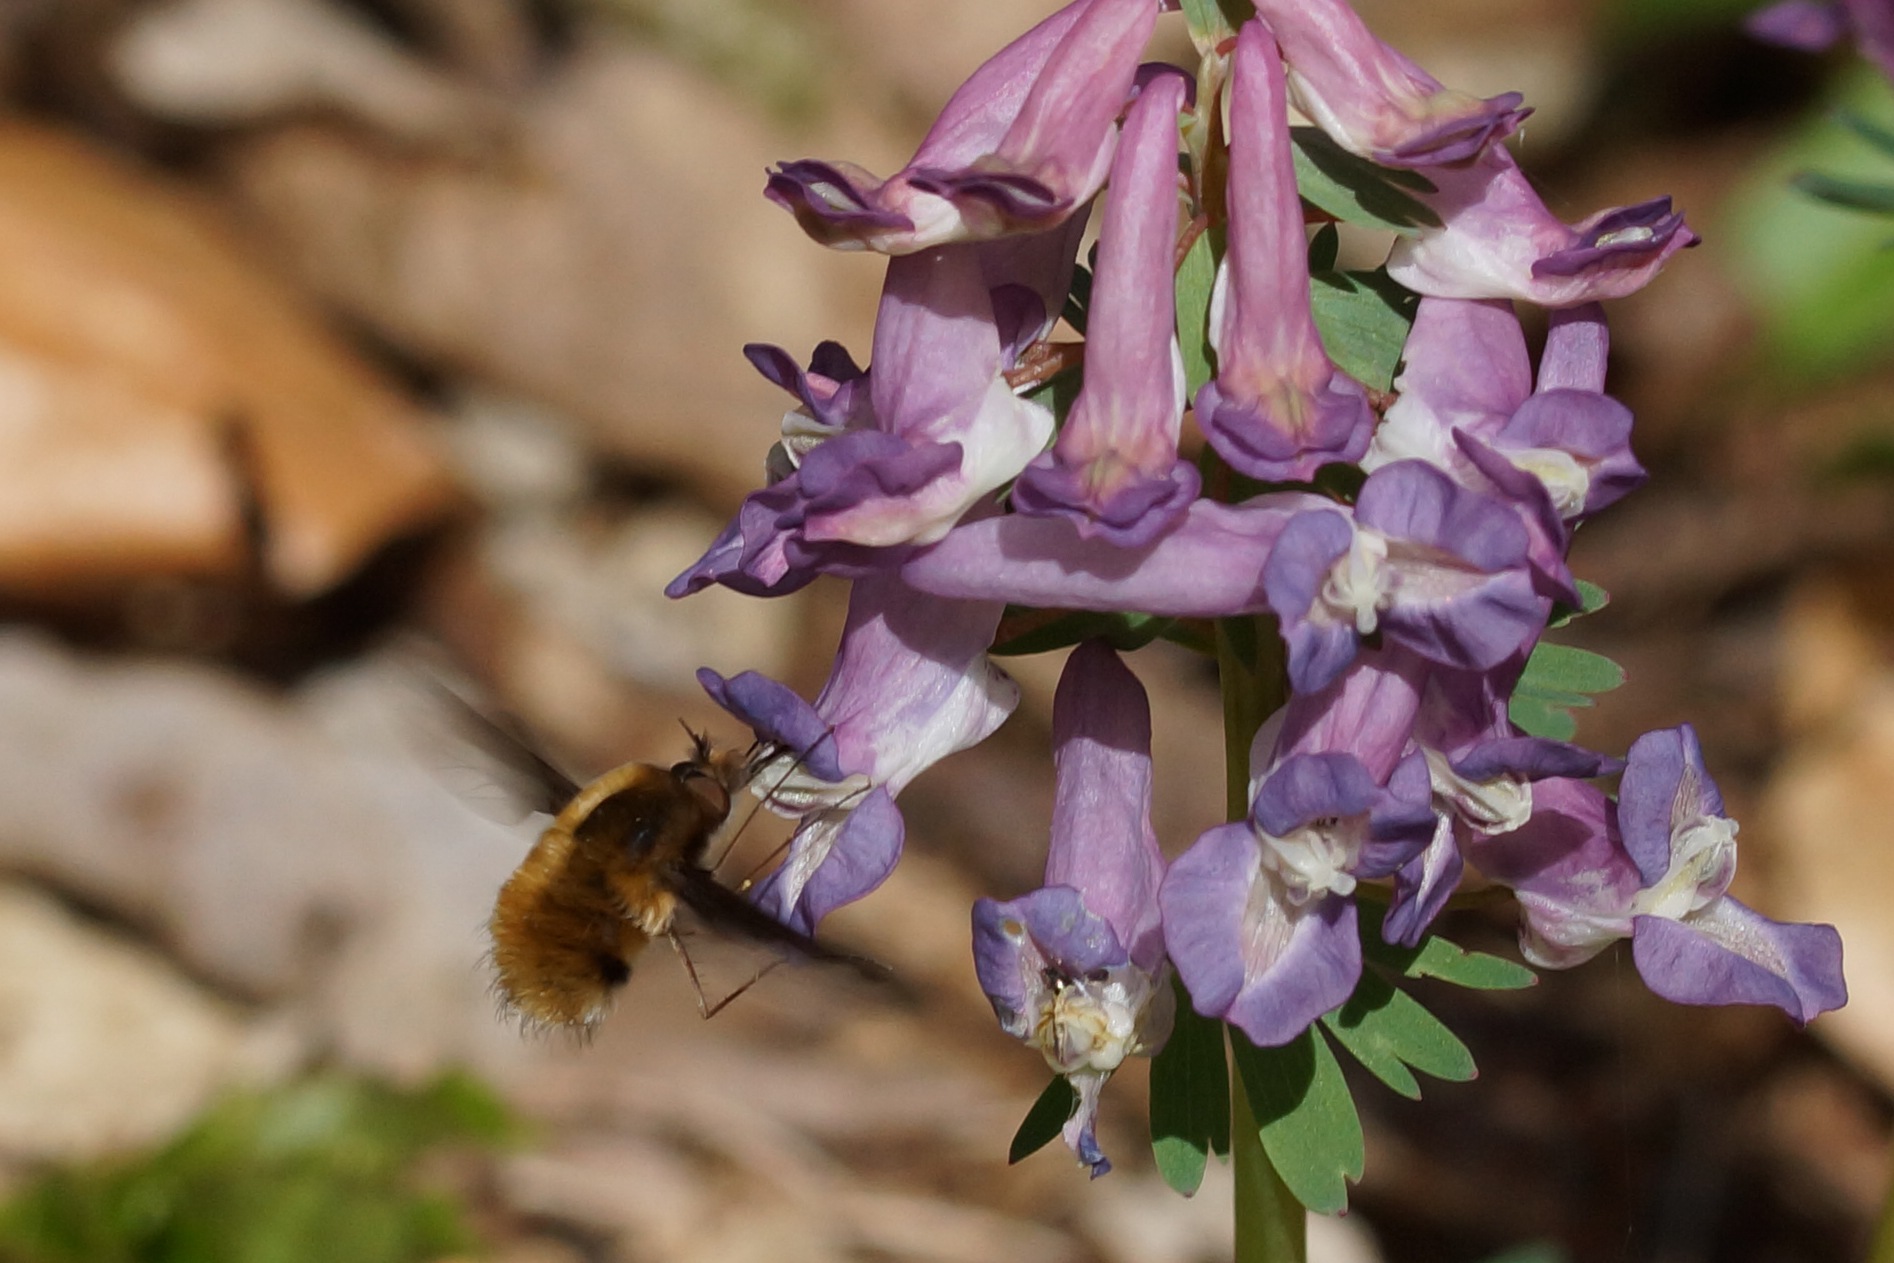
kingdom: Animalia
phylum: Arthropoda
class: Insecta
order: Diptera
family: Bombyliidae
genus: Bombylius
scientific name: Bombylius major
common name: Stor humleflue
